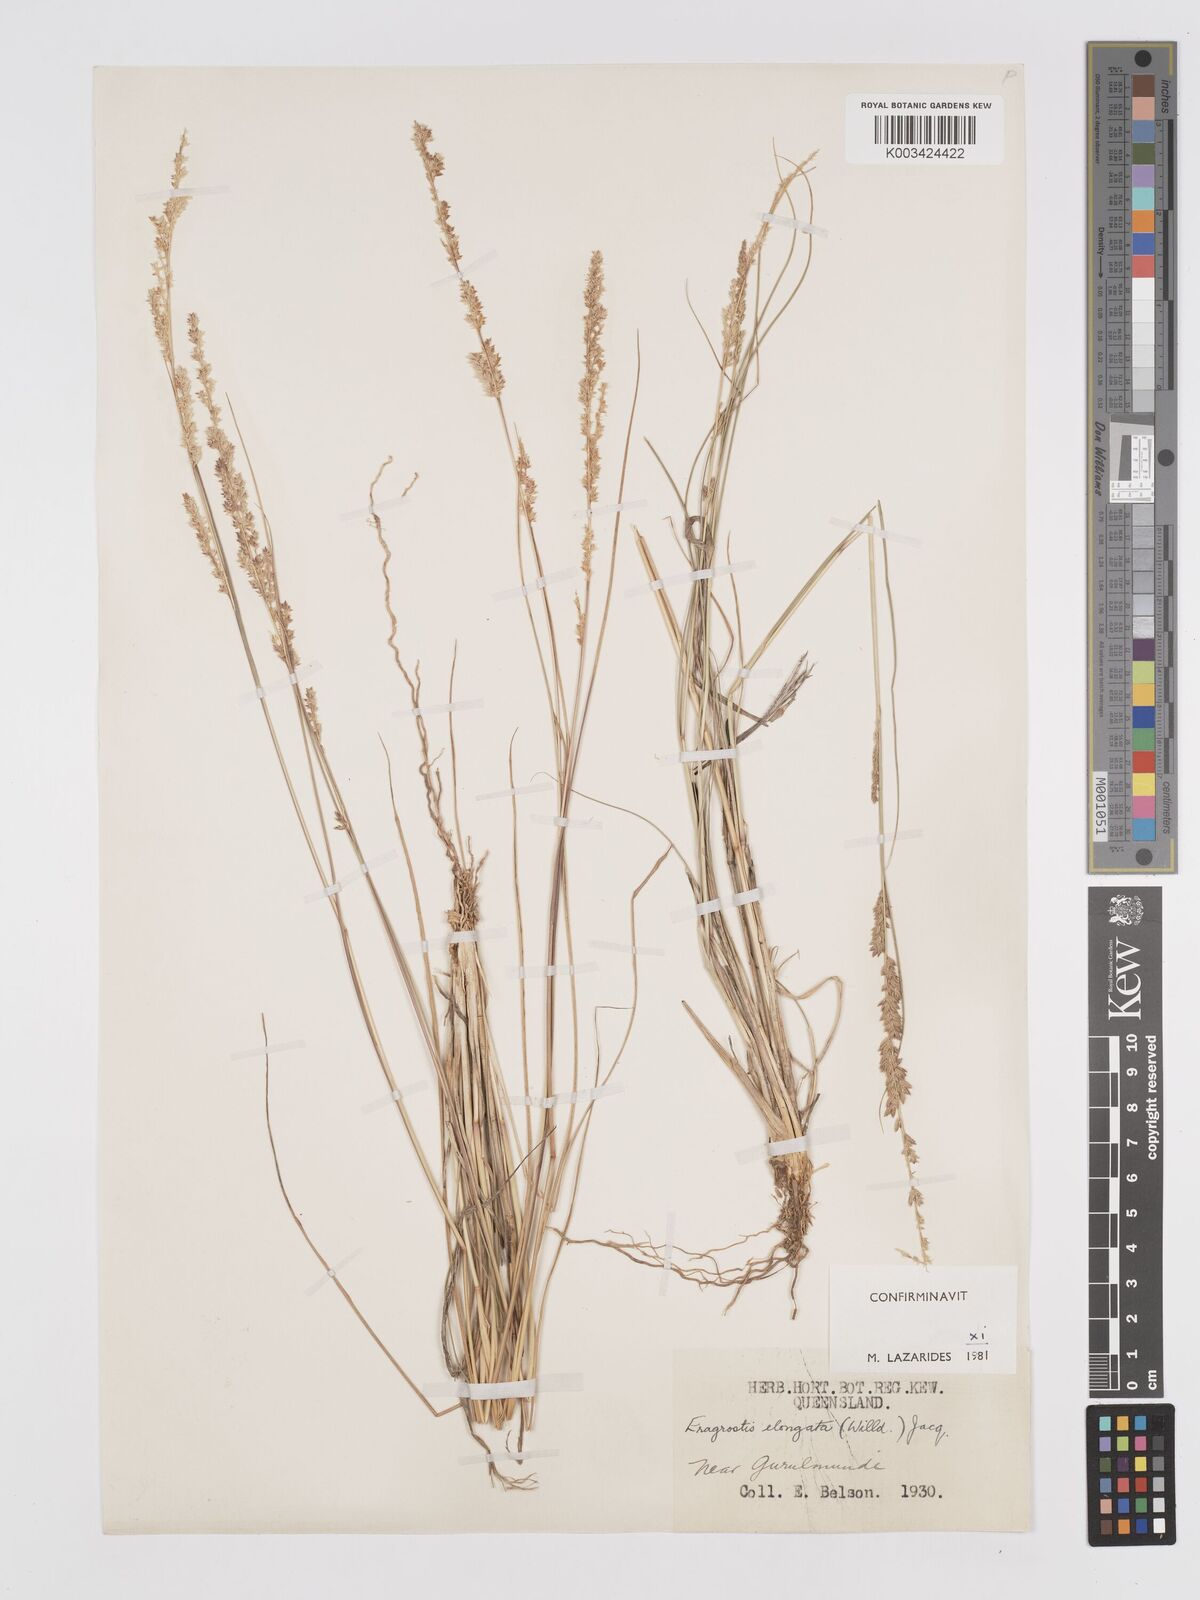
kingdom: Plantae
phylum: Tracheophyta
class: Liliopsida
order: Poales
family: Poaceae
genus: Eragrostis
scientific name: Eragrostis elongata
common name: Long lovegrass
